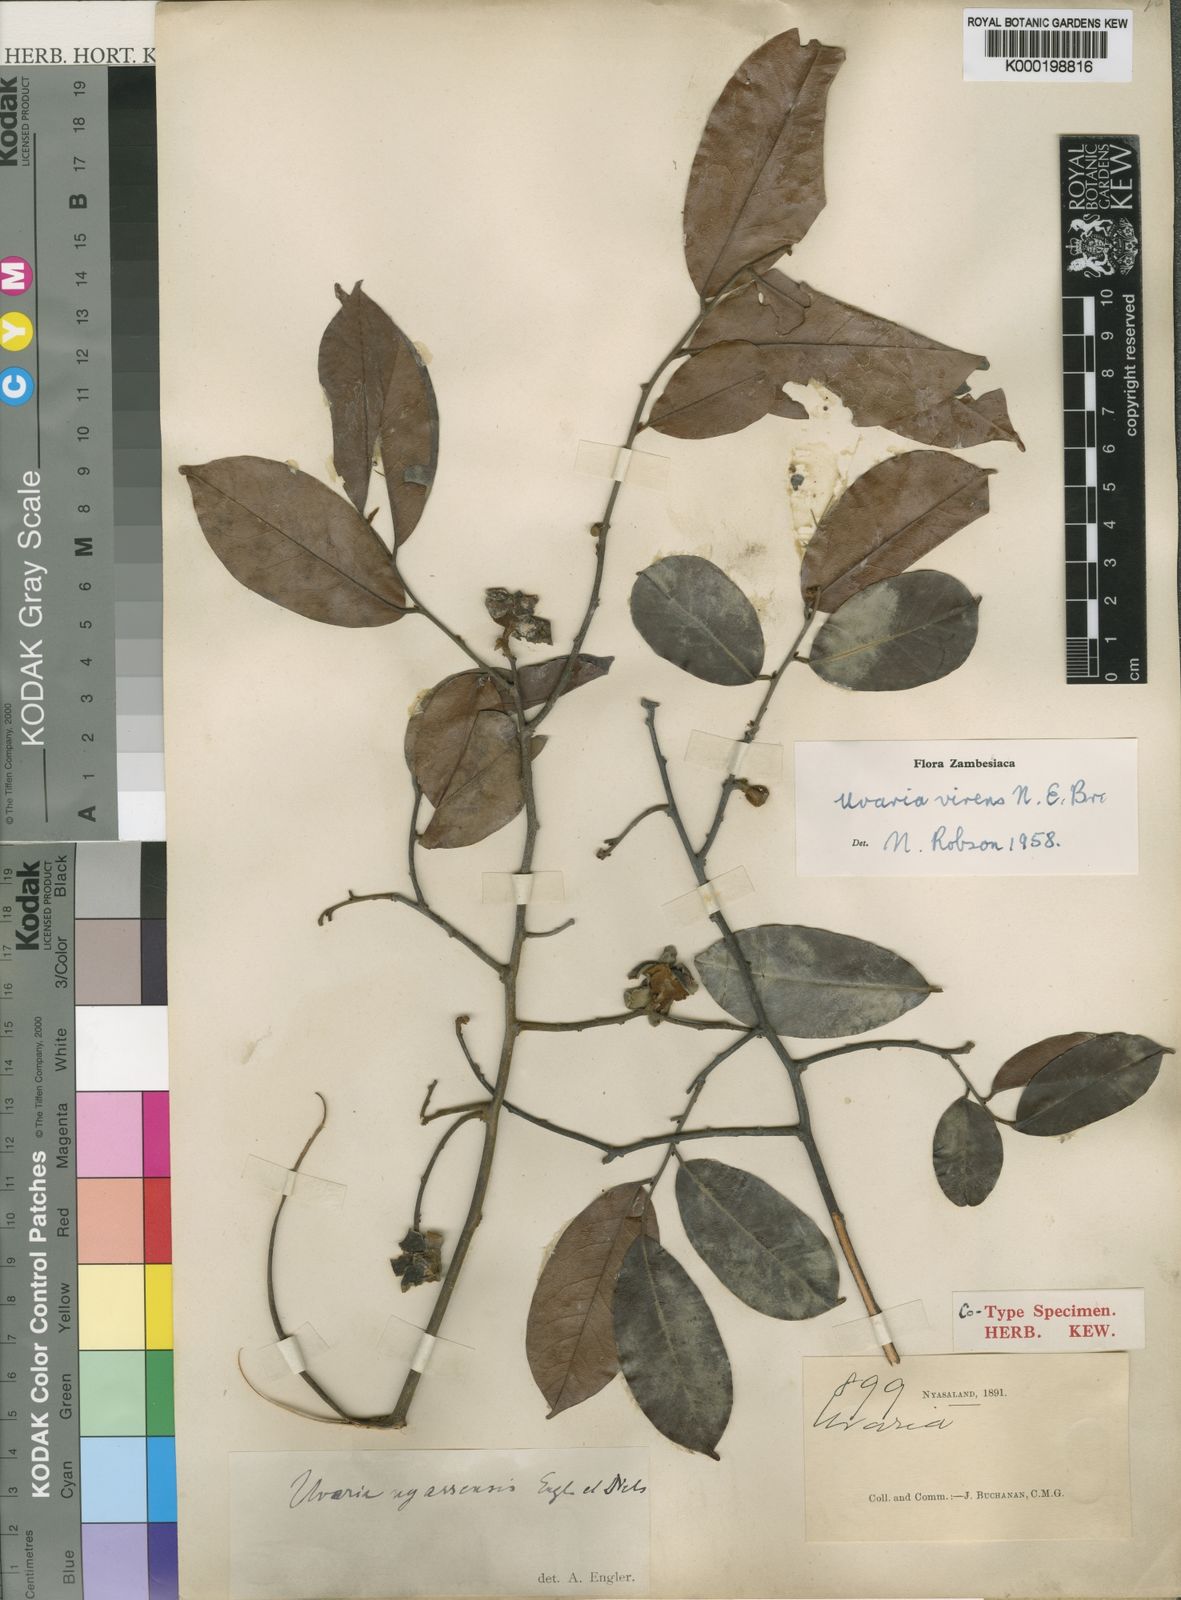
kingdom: Plantae
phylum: Tracheophyta
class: Magnoliopsida
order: Magnoliales
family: Annonaceae
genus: Uvaria
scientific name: Uvaria lucida
